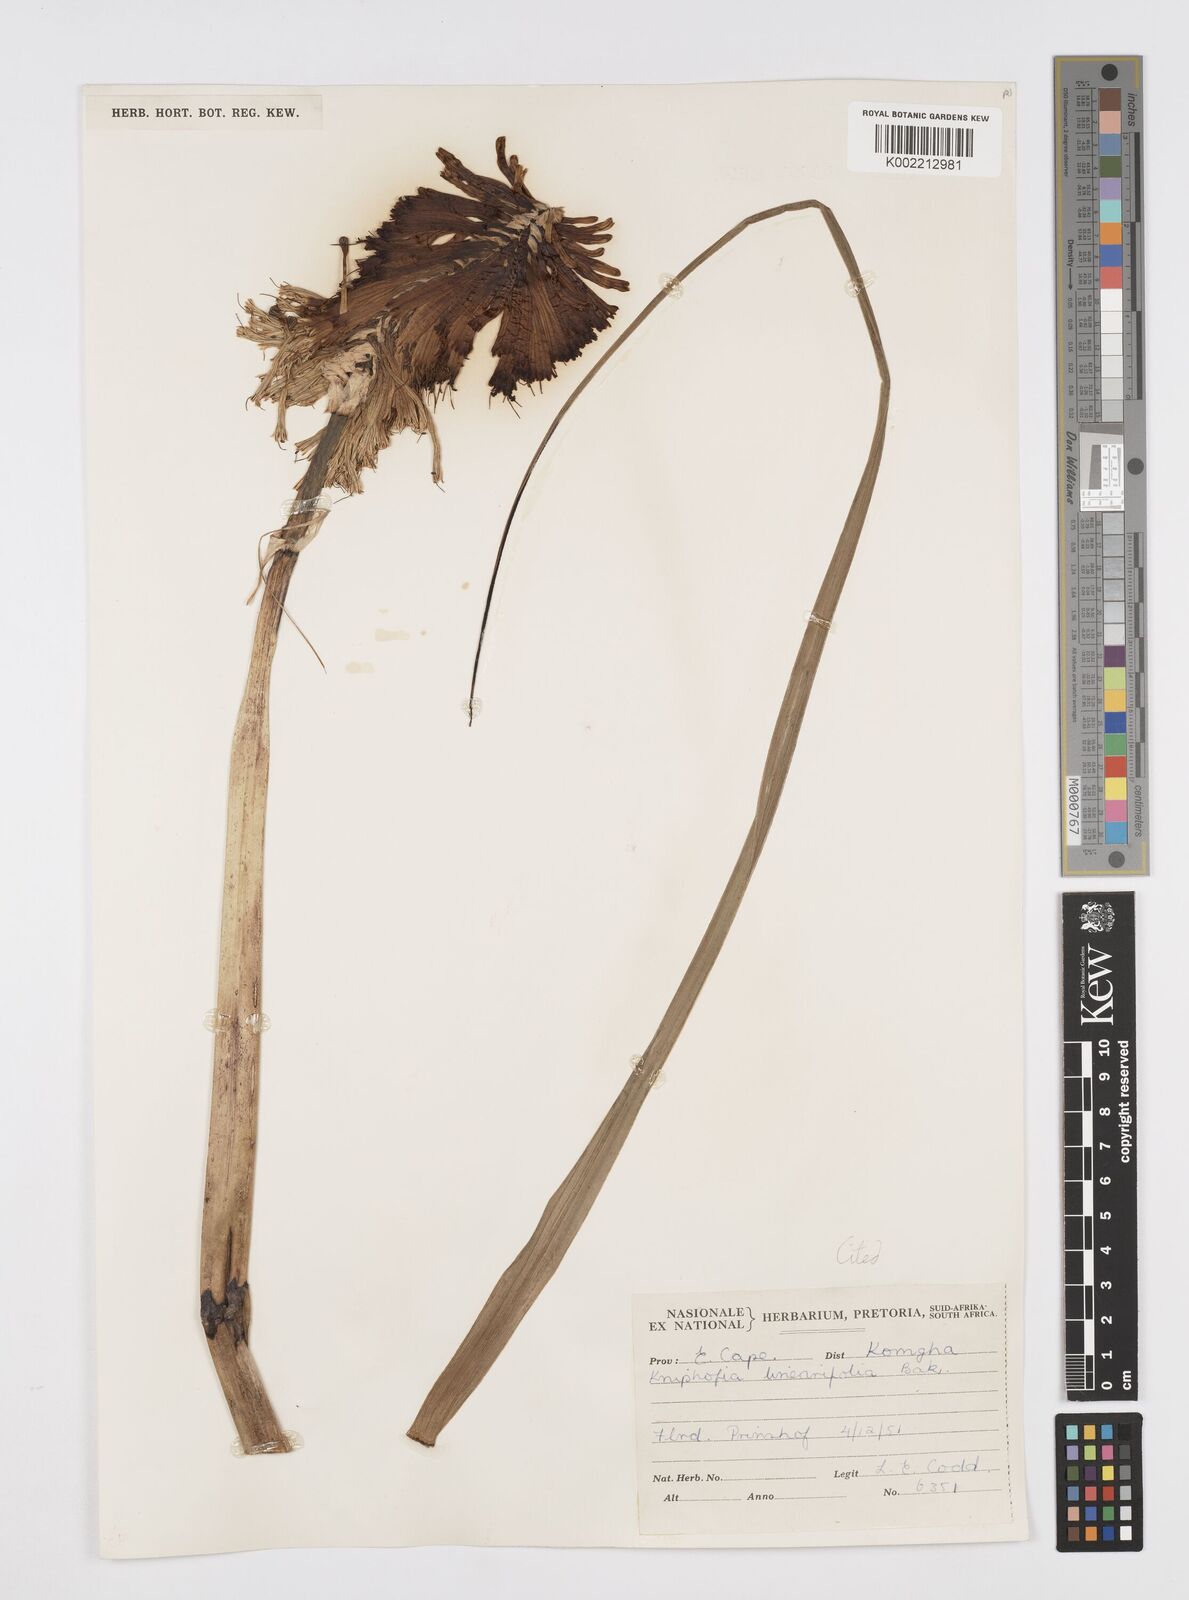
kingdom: Plantae
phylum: Tracheophyta
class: Liliopsida
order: Asparagales
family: Asphodelaceae
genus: Kniphofia
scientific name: Kniphofia linearifolia
